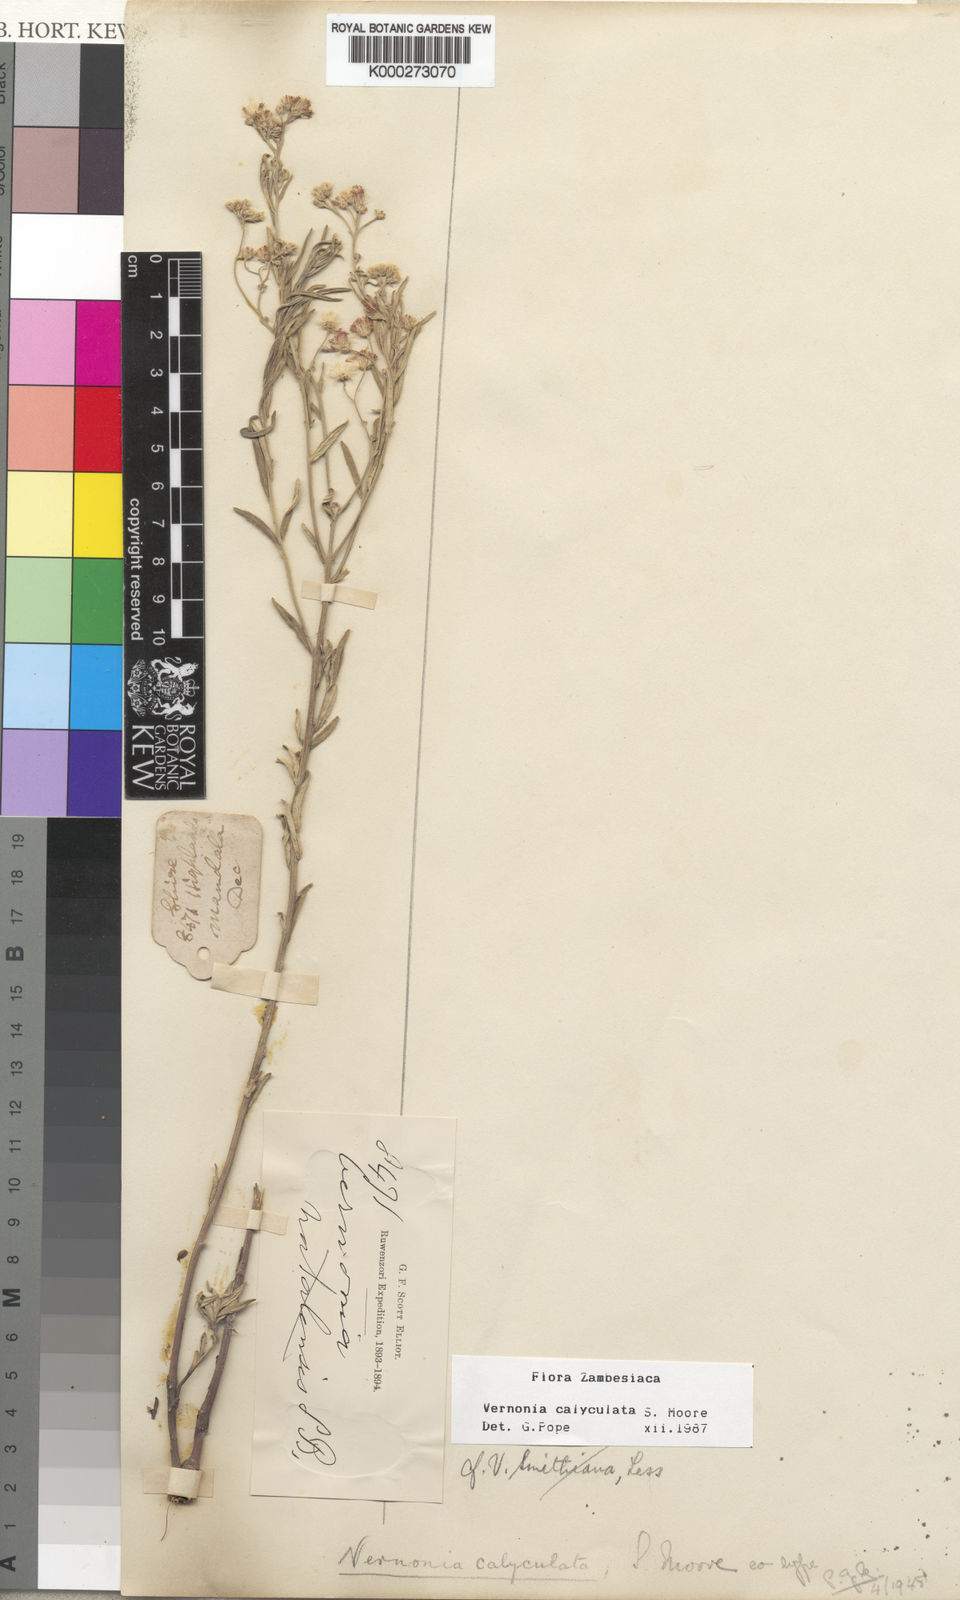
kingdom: Plantae
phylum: Tracheophyta
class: Magnoliopsida
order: Asterales
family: Asteraceae
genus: Hilliardiella
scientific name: Hilliardiella calyculata
